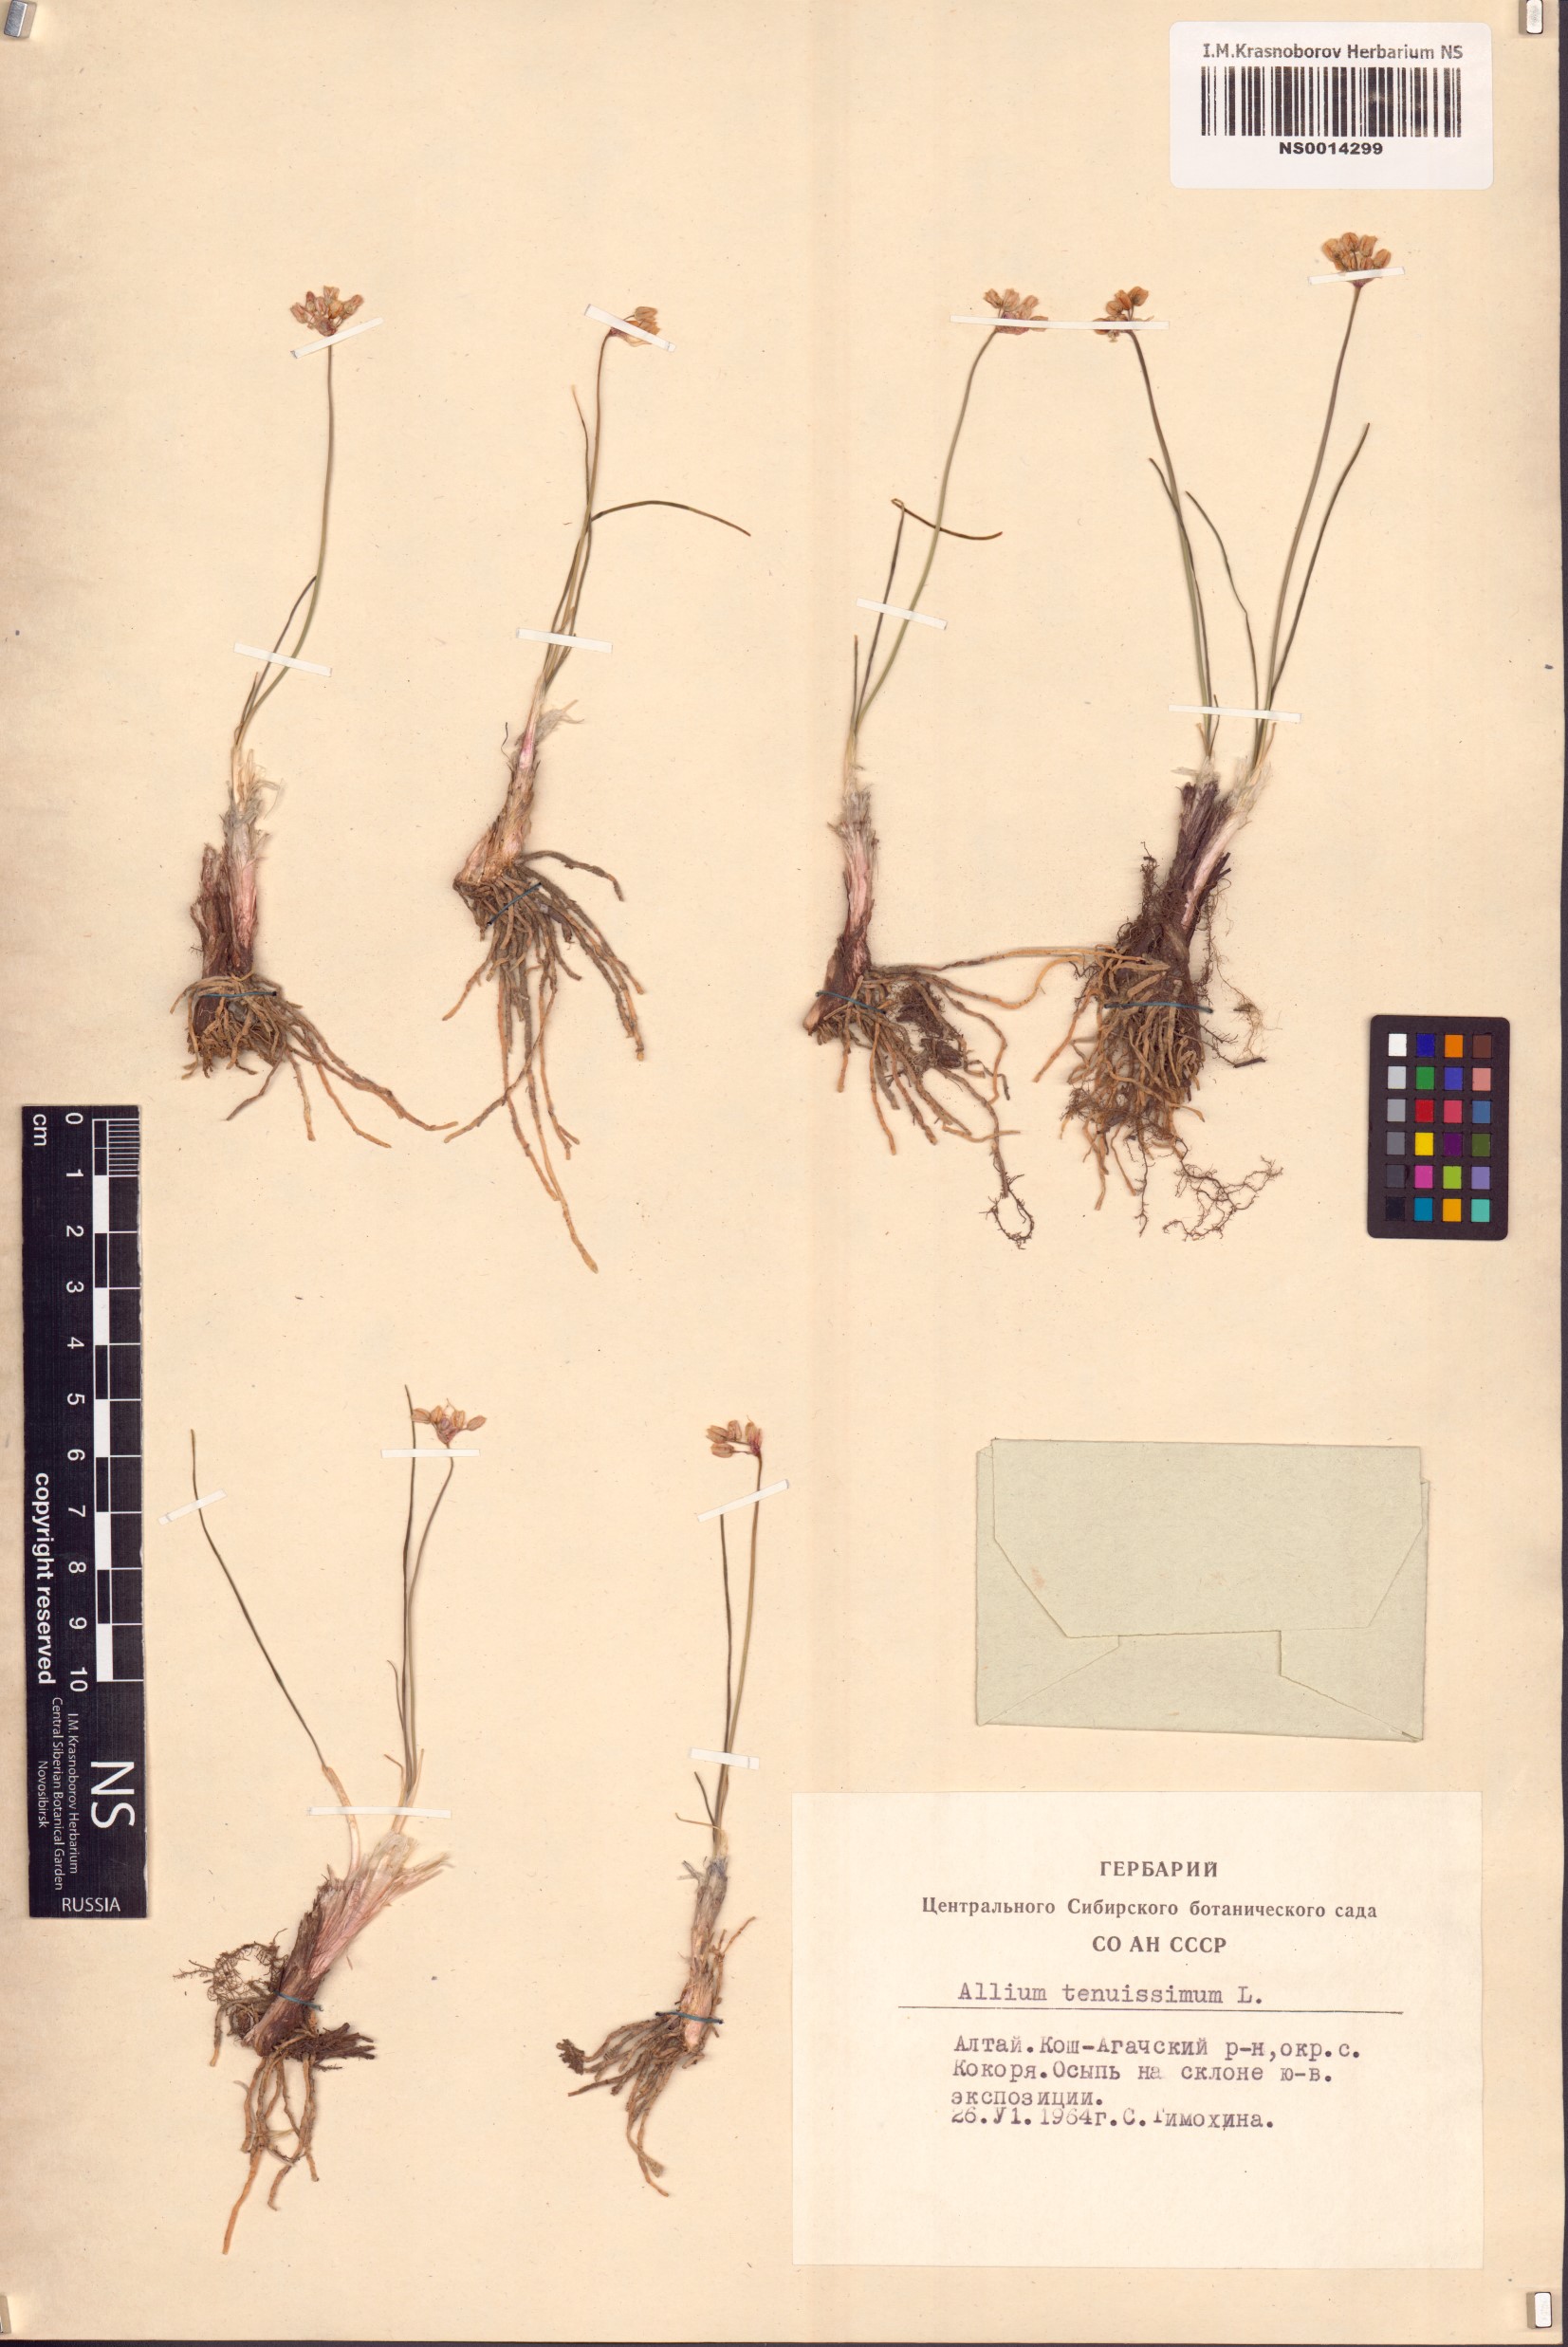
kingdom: Plantae
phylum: Tracheophyta
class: Liliopsida
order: Asparagales
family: Amaryllidaceae
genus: Allium
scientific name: Allium tenuissimum
